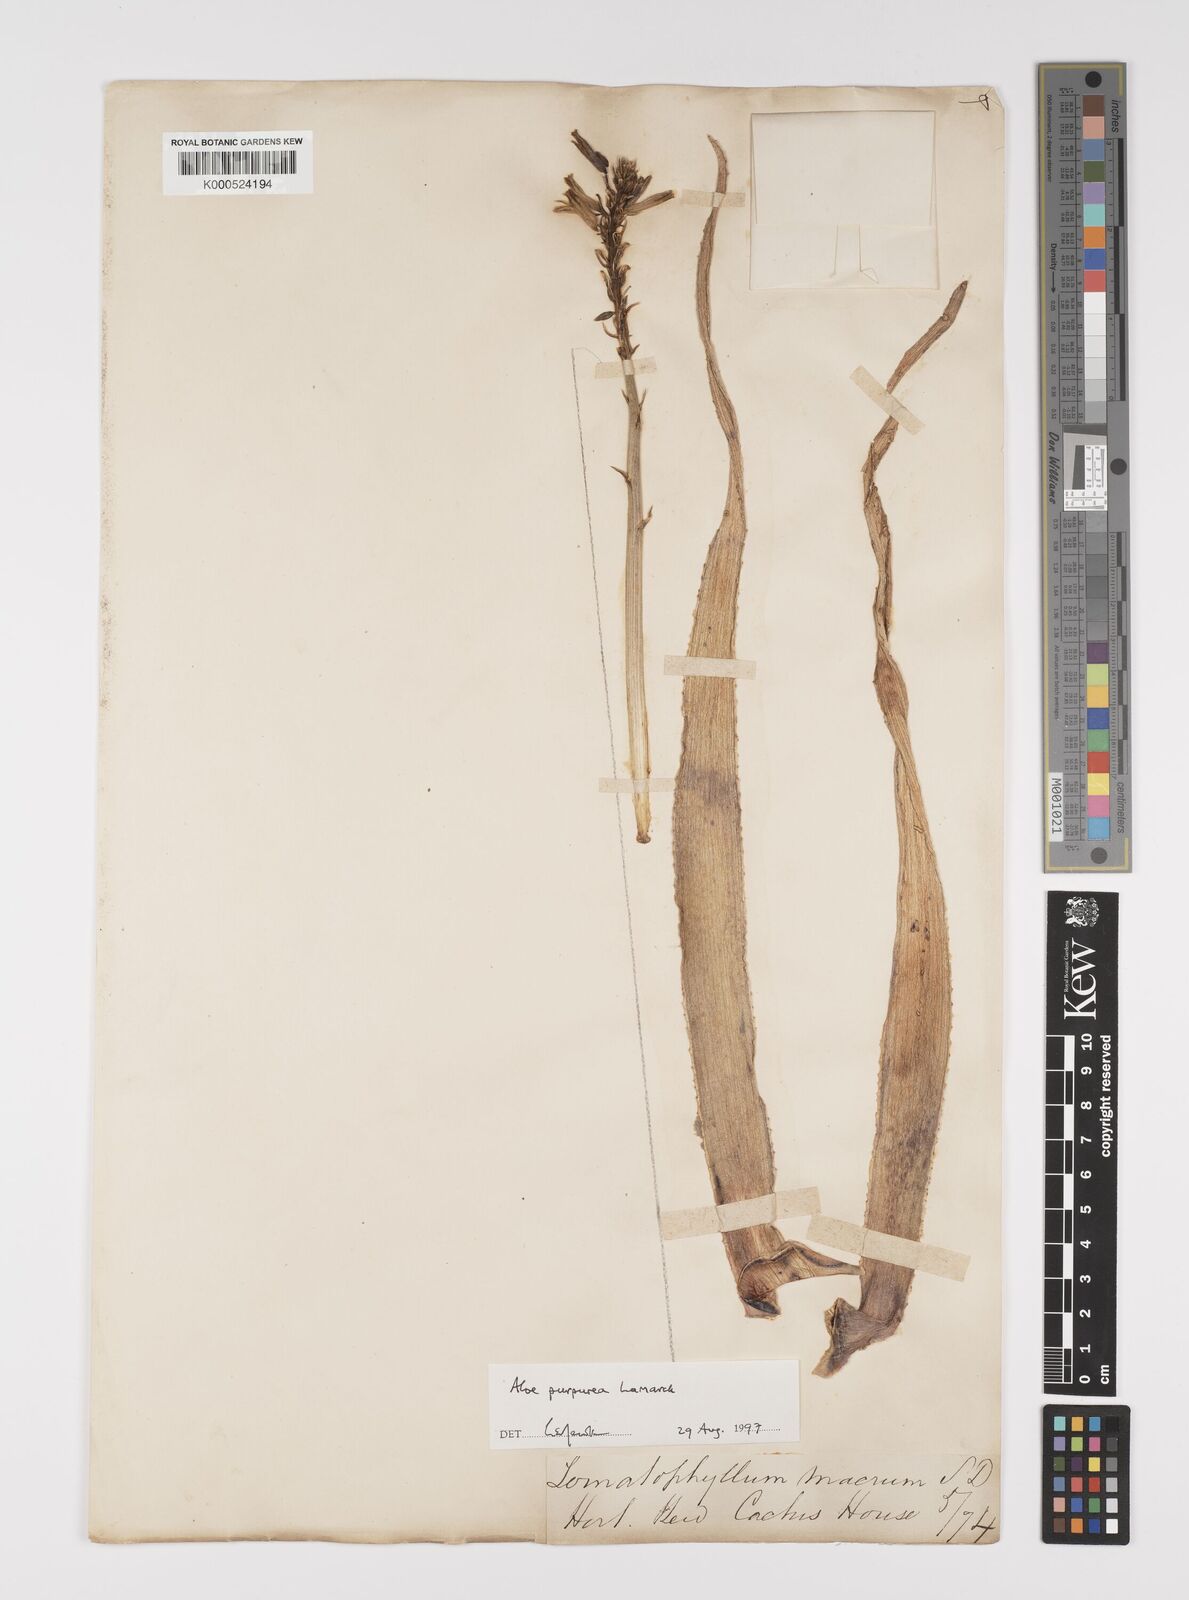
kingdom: Plantae
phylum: Tracheophyta
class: Liliopsida
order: Asparagales
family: Asphodelaceae
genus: Aloe
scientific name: Aloe purpurea
